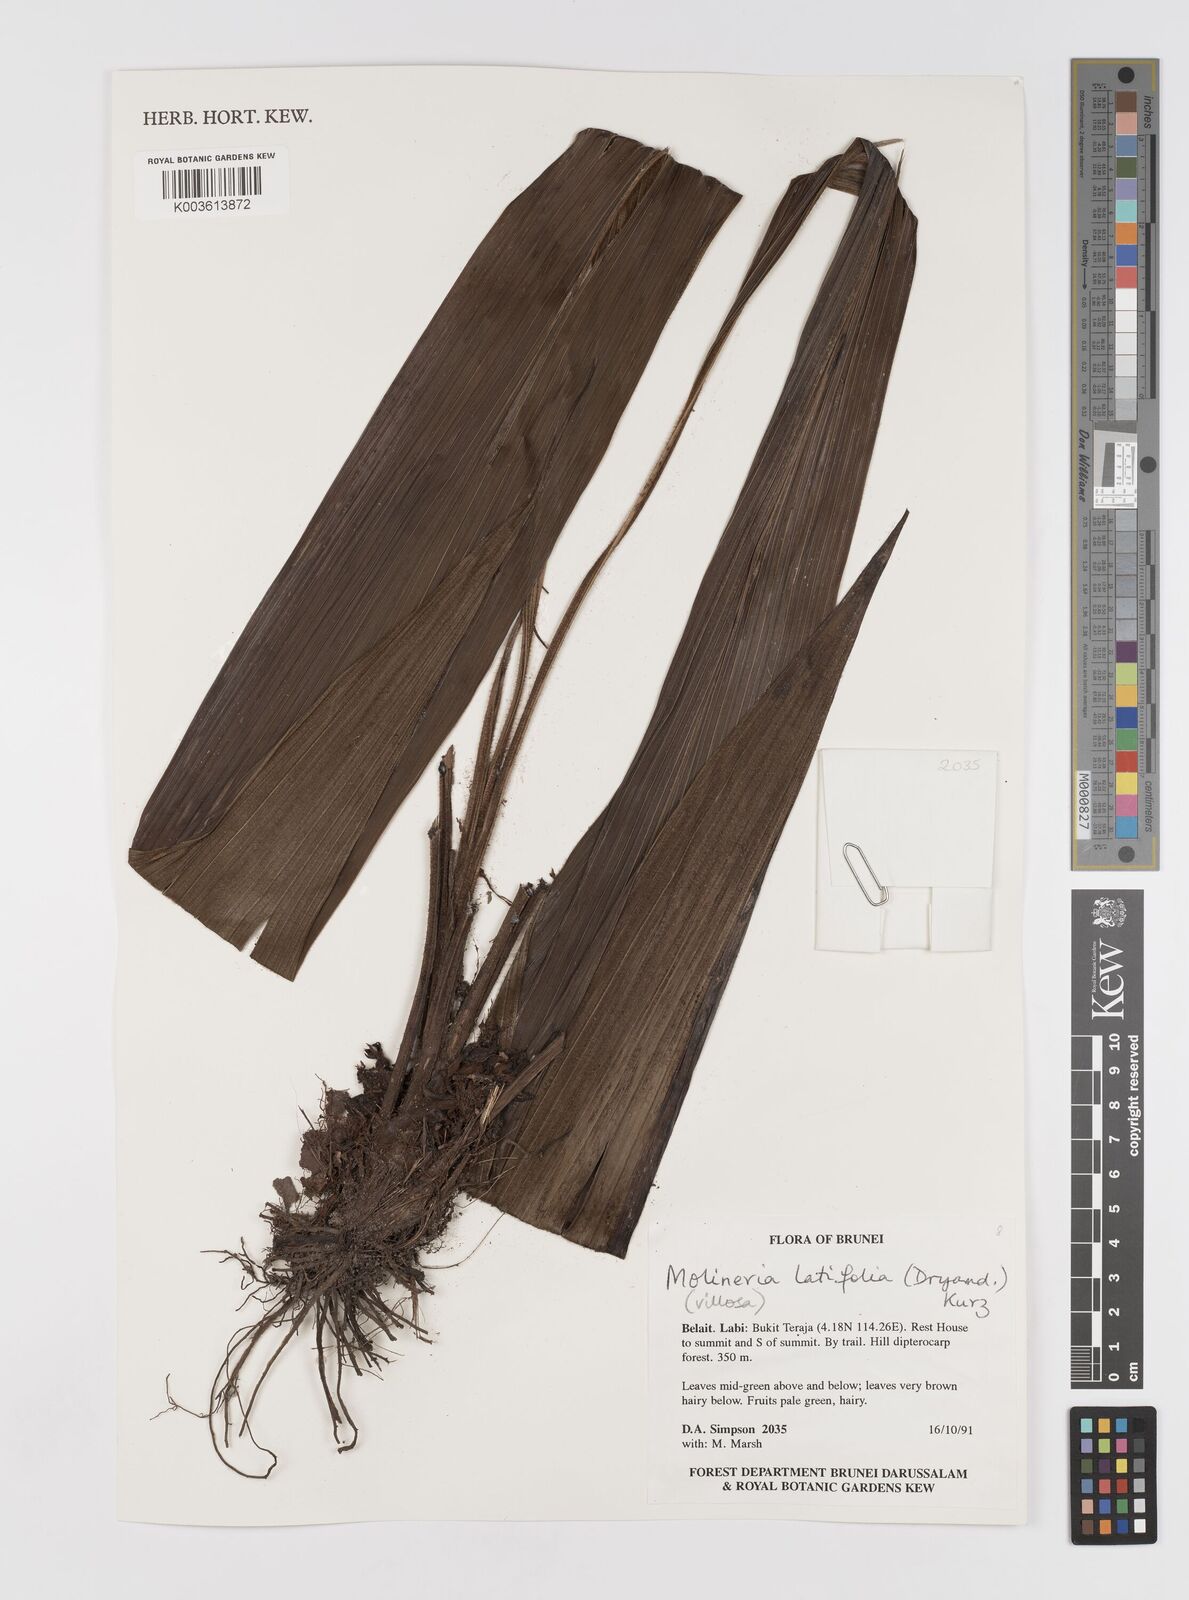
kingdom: Plantae
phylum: Tracheophyta
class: Liliopsida
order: Asparagales
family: Hypoxidaceae
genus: Curculigo
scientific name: Curculigo latifolia
